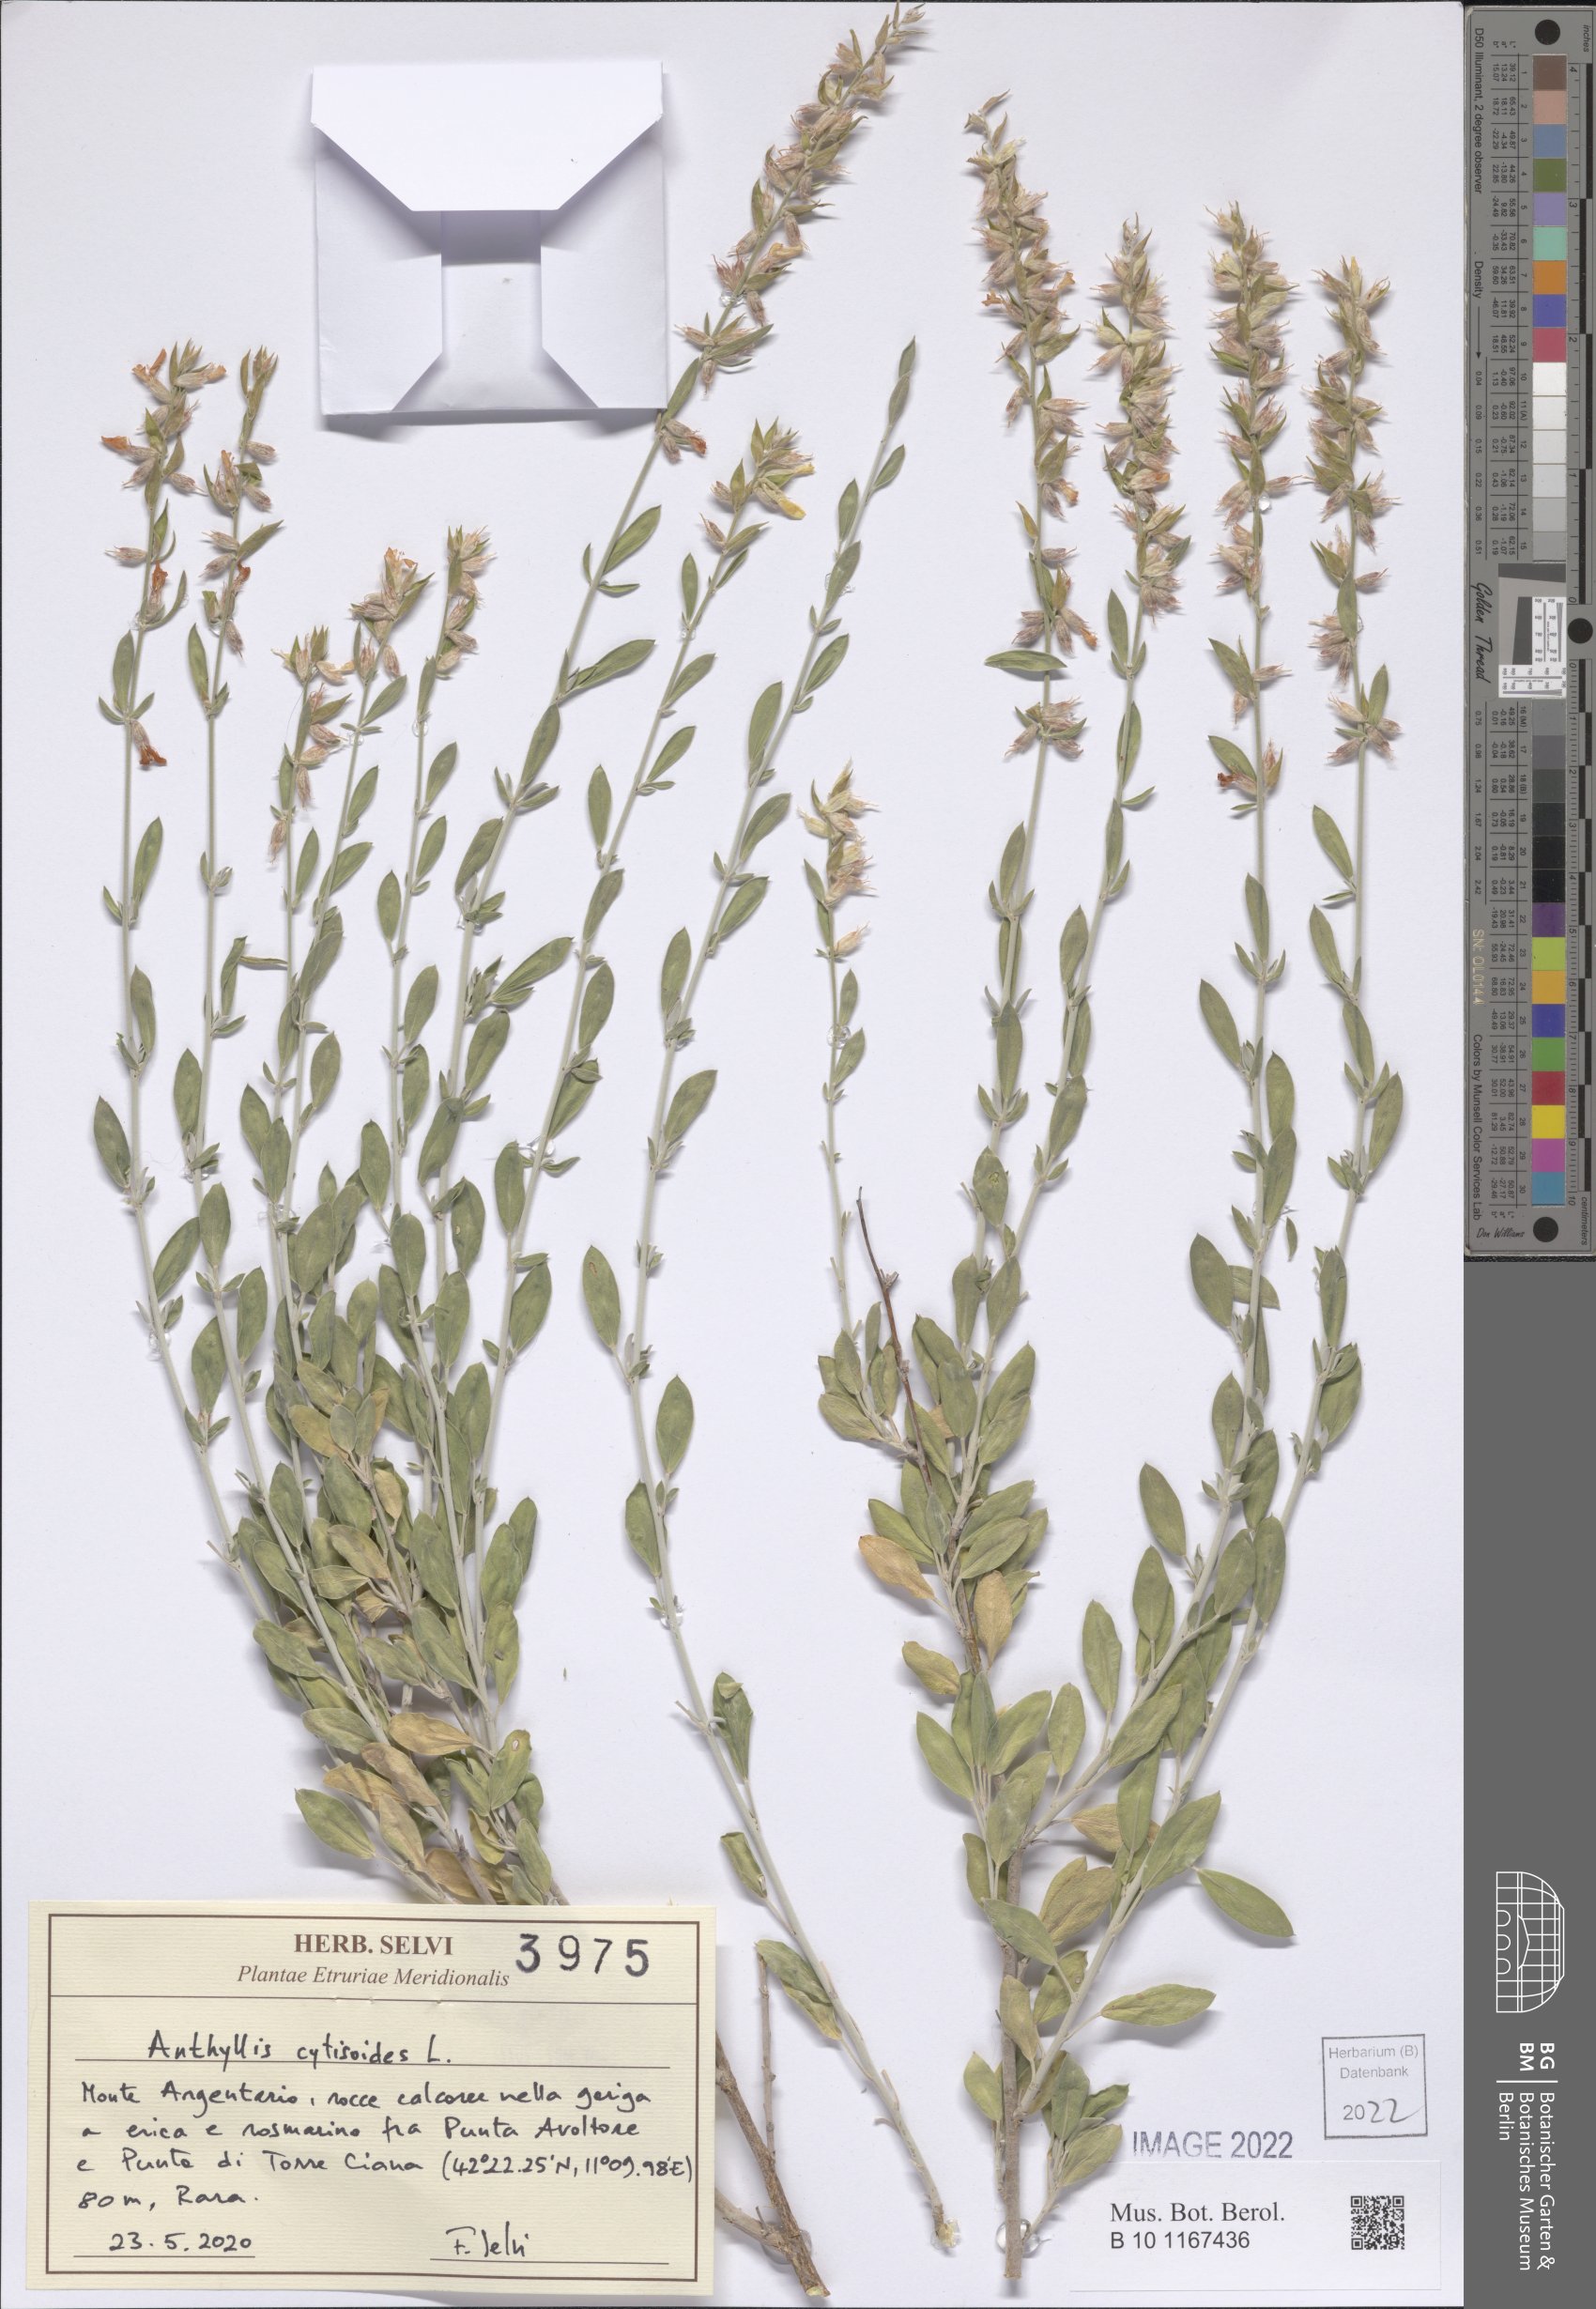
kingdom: Plantae
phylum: Tracheophyta
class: Magnoliopsida
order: Fabales
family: Fabaceae
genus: Anthyllis
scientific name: Anthyllis cytisoides
